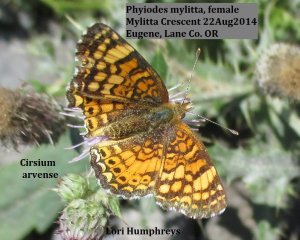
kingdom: Animalia
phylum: Arthropoda
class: Insecta
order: Lepidoptera
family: Nymphalidae
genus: Eresia
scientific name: Eresia aveyrona
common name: Mylitta Crescent
